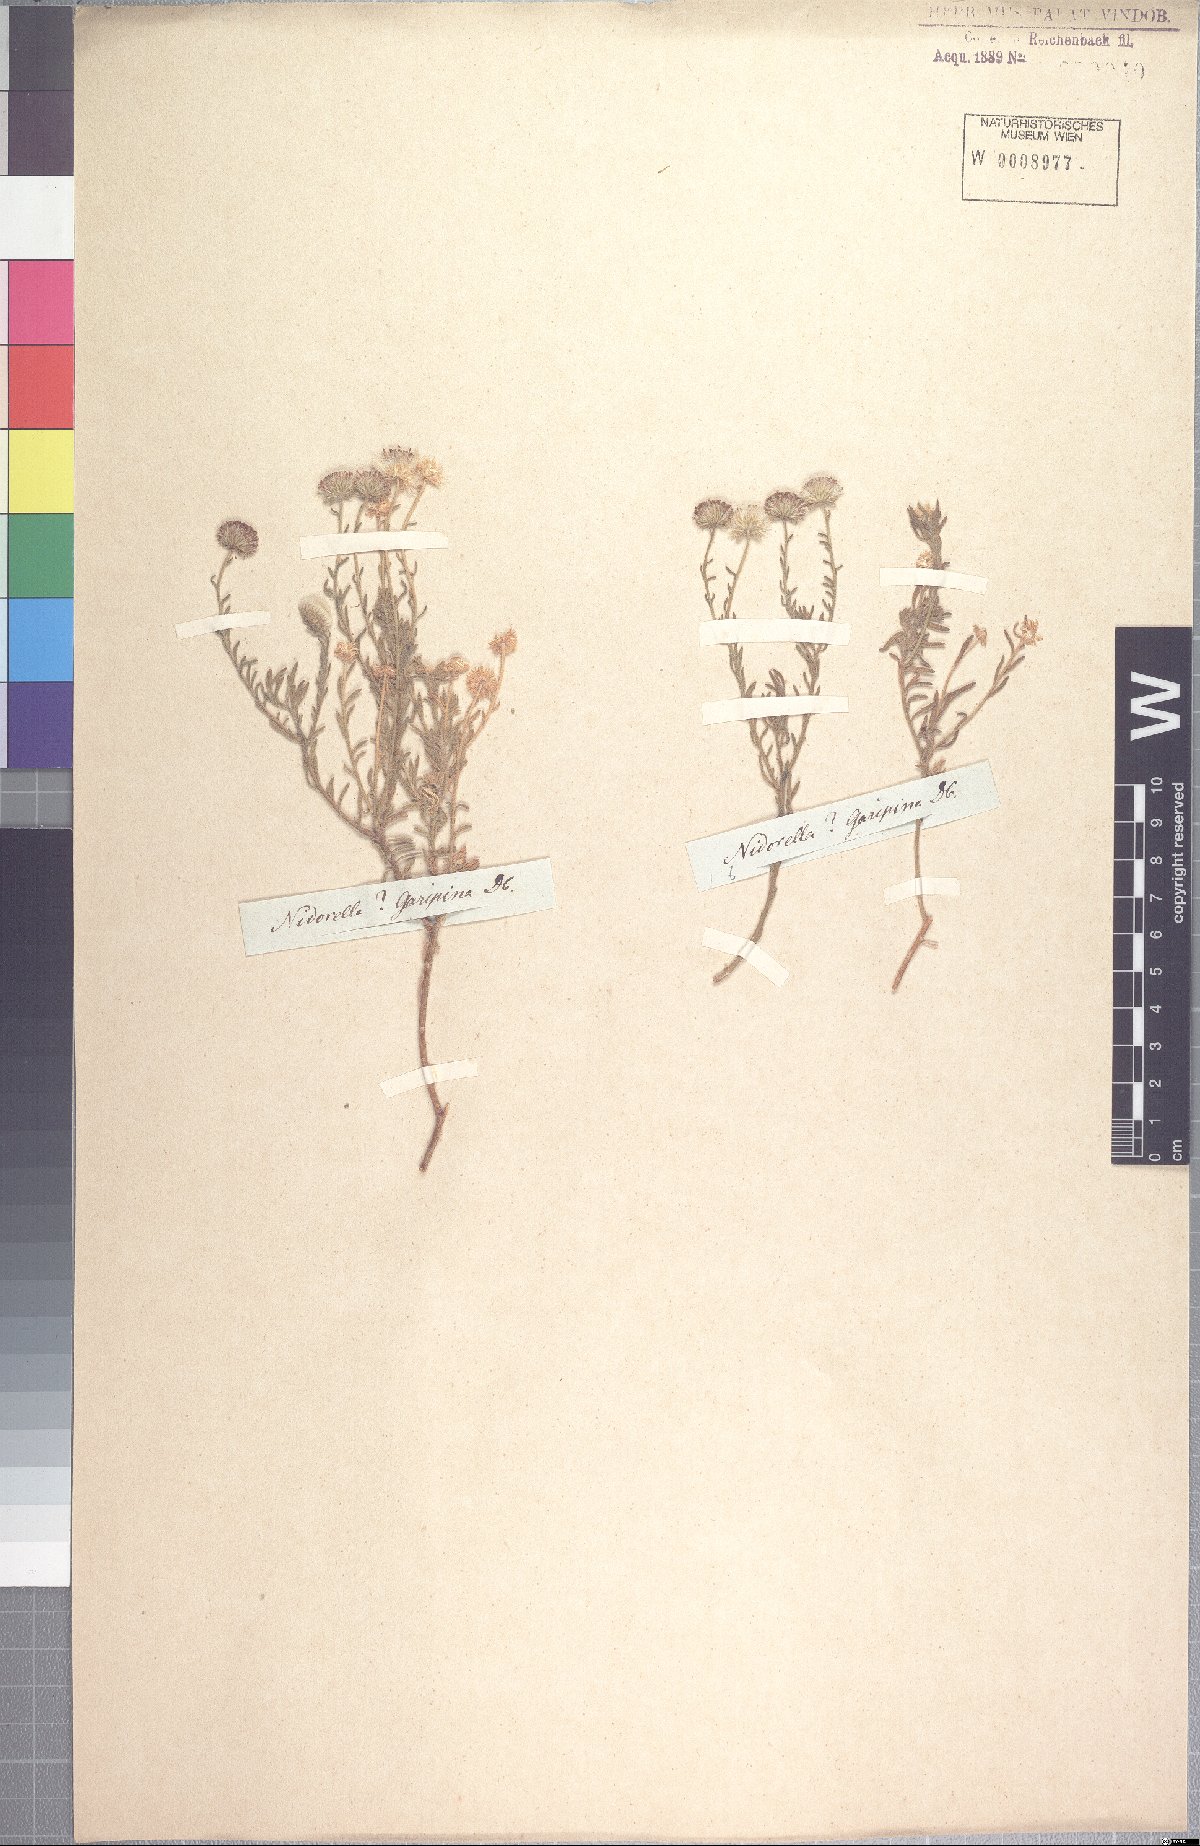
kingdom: Plantae
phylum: Tracheophyta
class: Magnoliopsida
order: Asterales
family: Asteraceae
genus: Nolletia
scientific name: Nolletia gariepina
